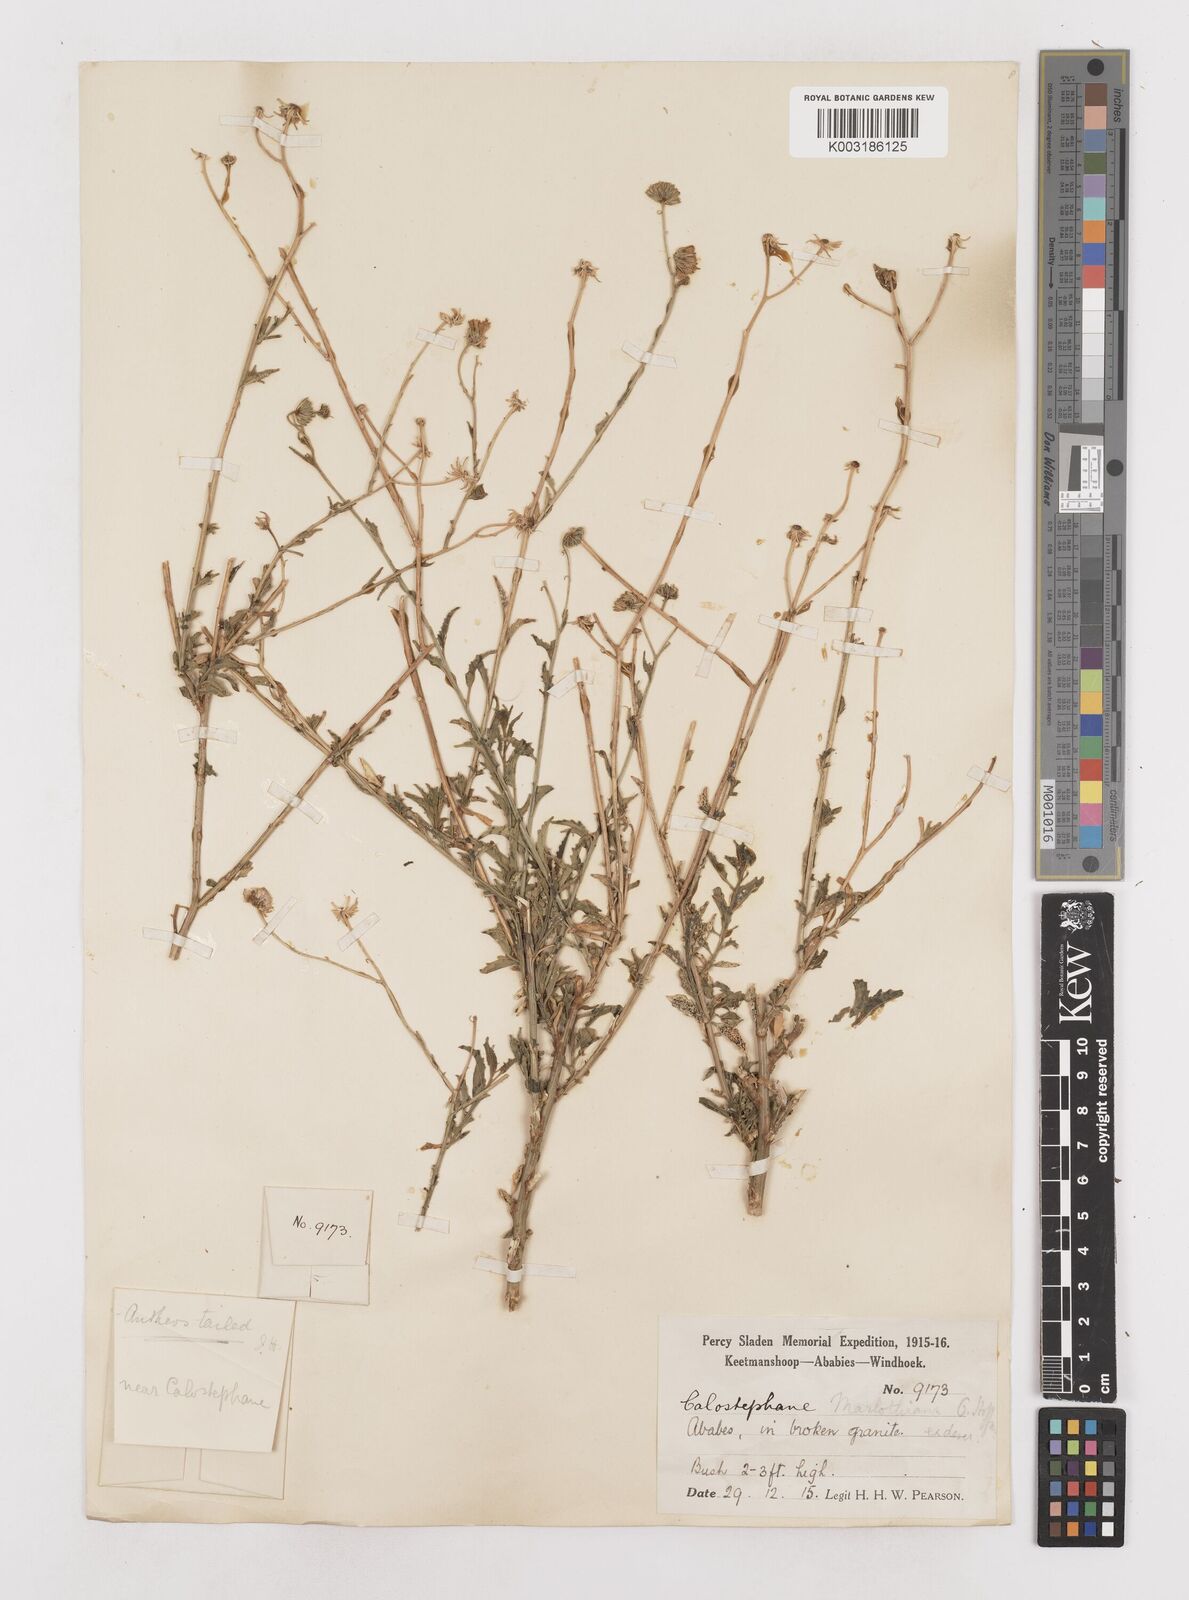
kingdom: Plantae
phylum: Tracheophyta
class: Magnoliopsida
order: Asterales
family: Asteraceae
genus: Calostephane
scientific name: Calostephane marlothiana
